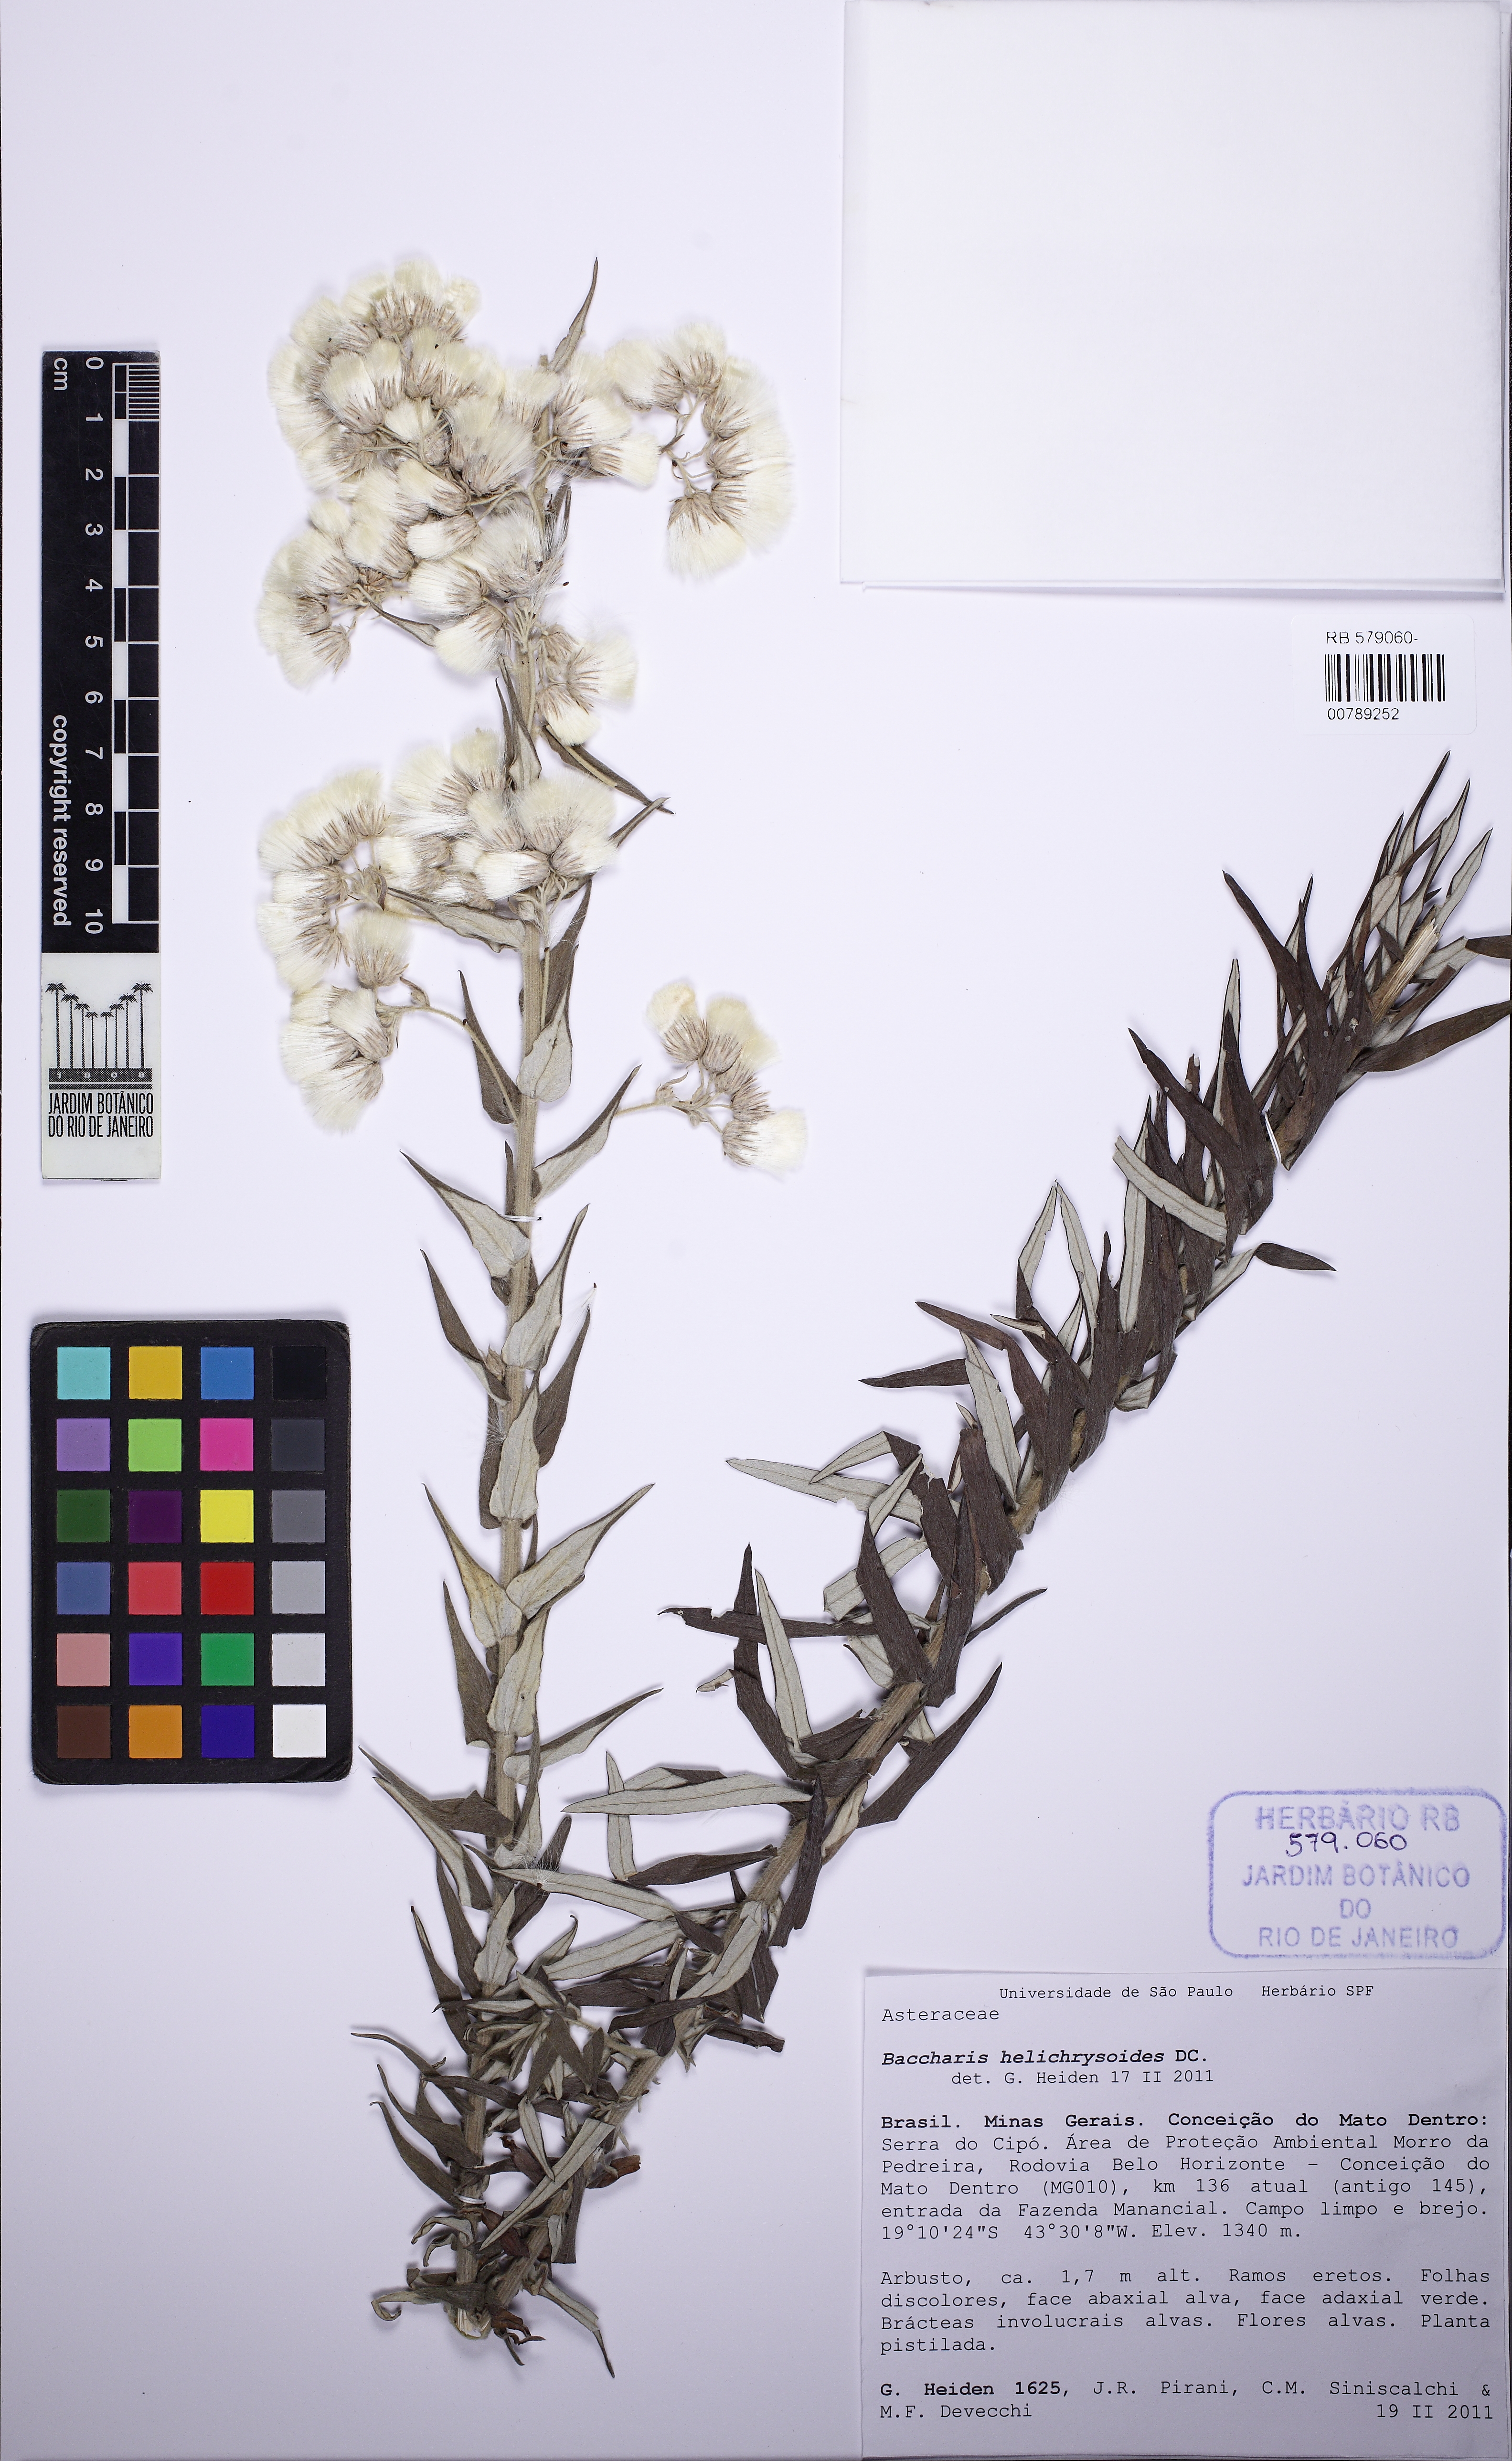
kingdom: Plantae
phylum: Tracheophyta
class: Magnoliopsida
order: Asterales
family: Asteraceae
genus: Baccharis
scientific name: Baccharis helichrysoides
